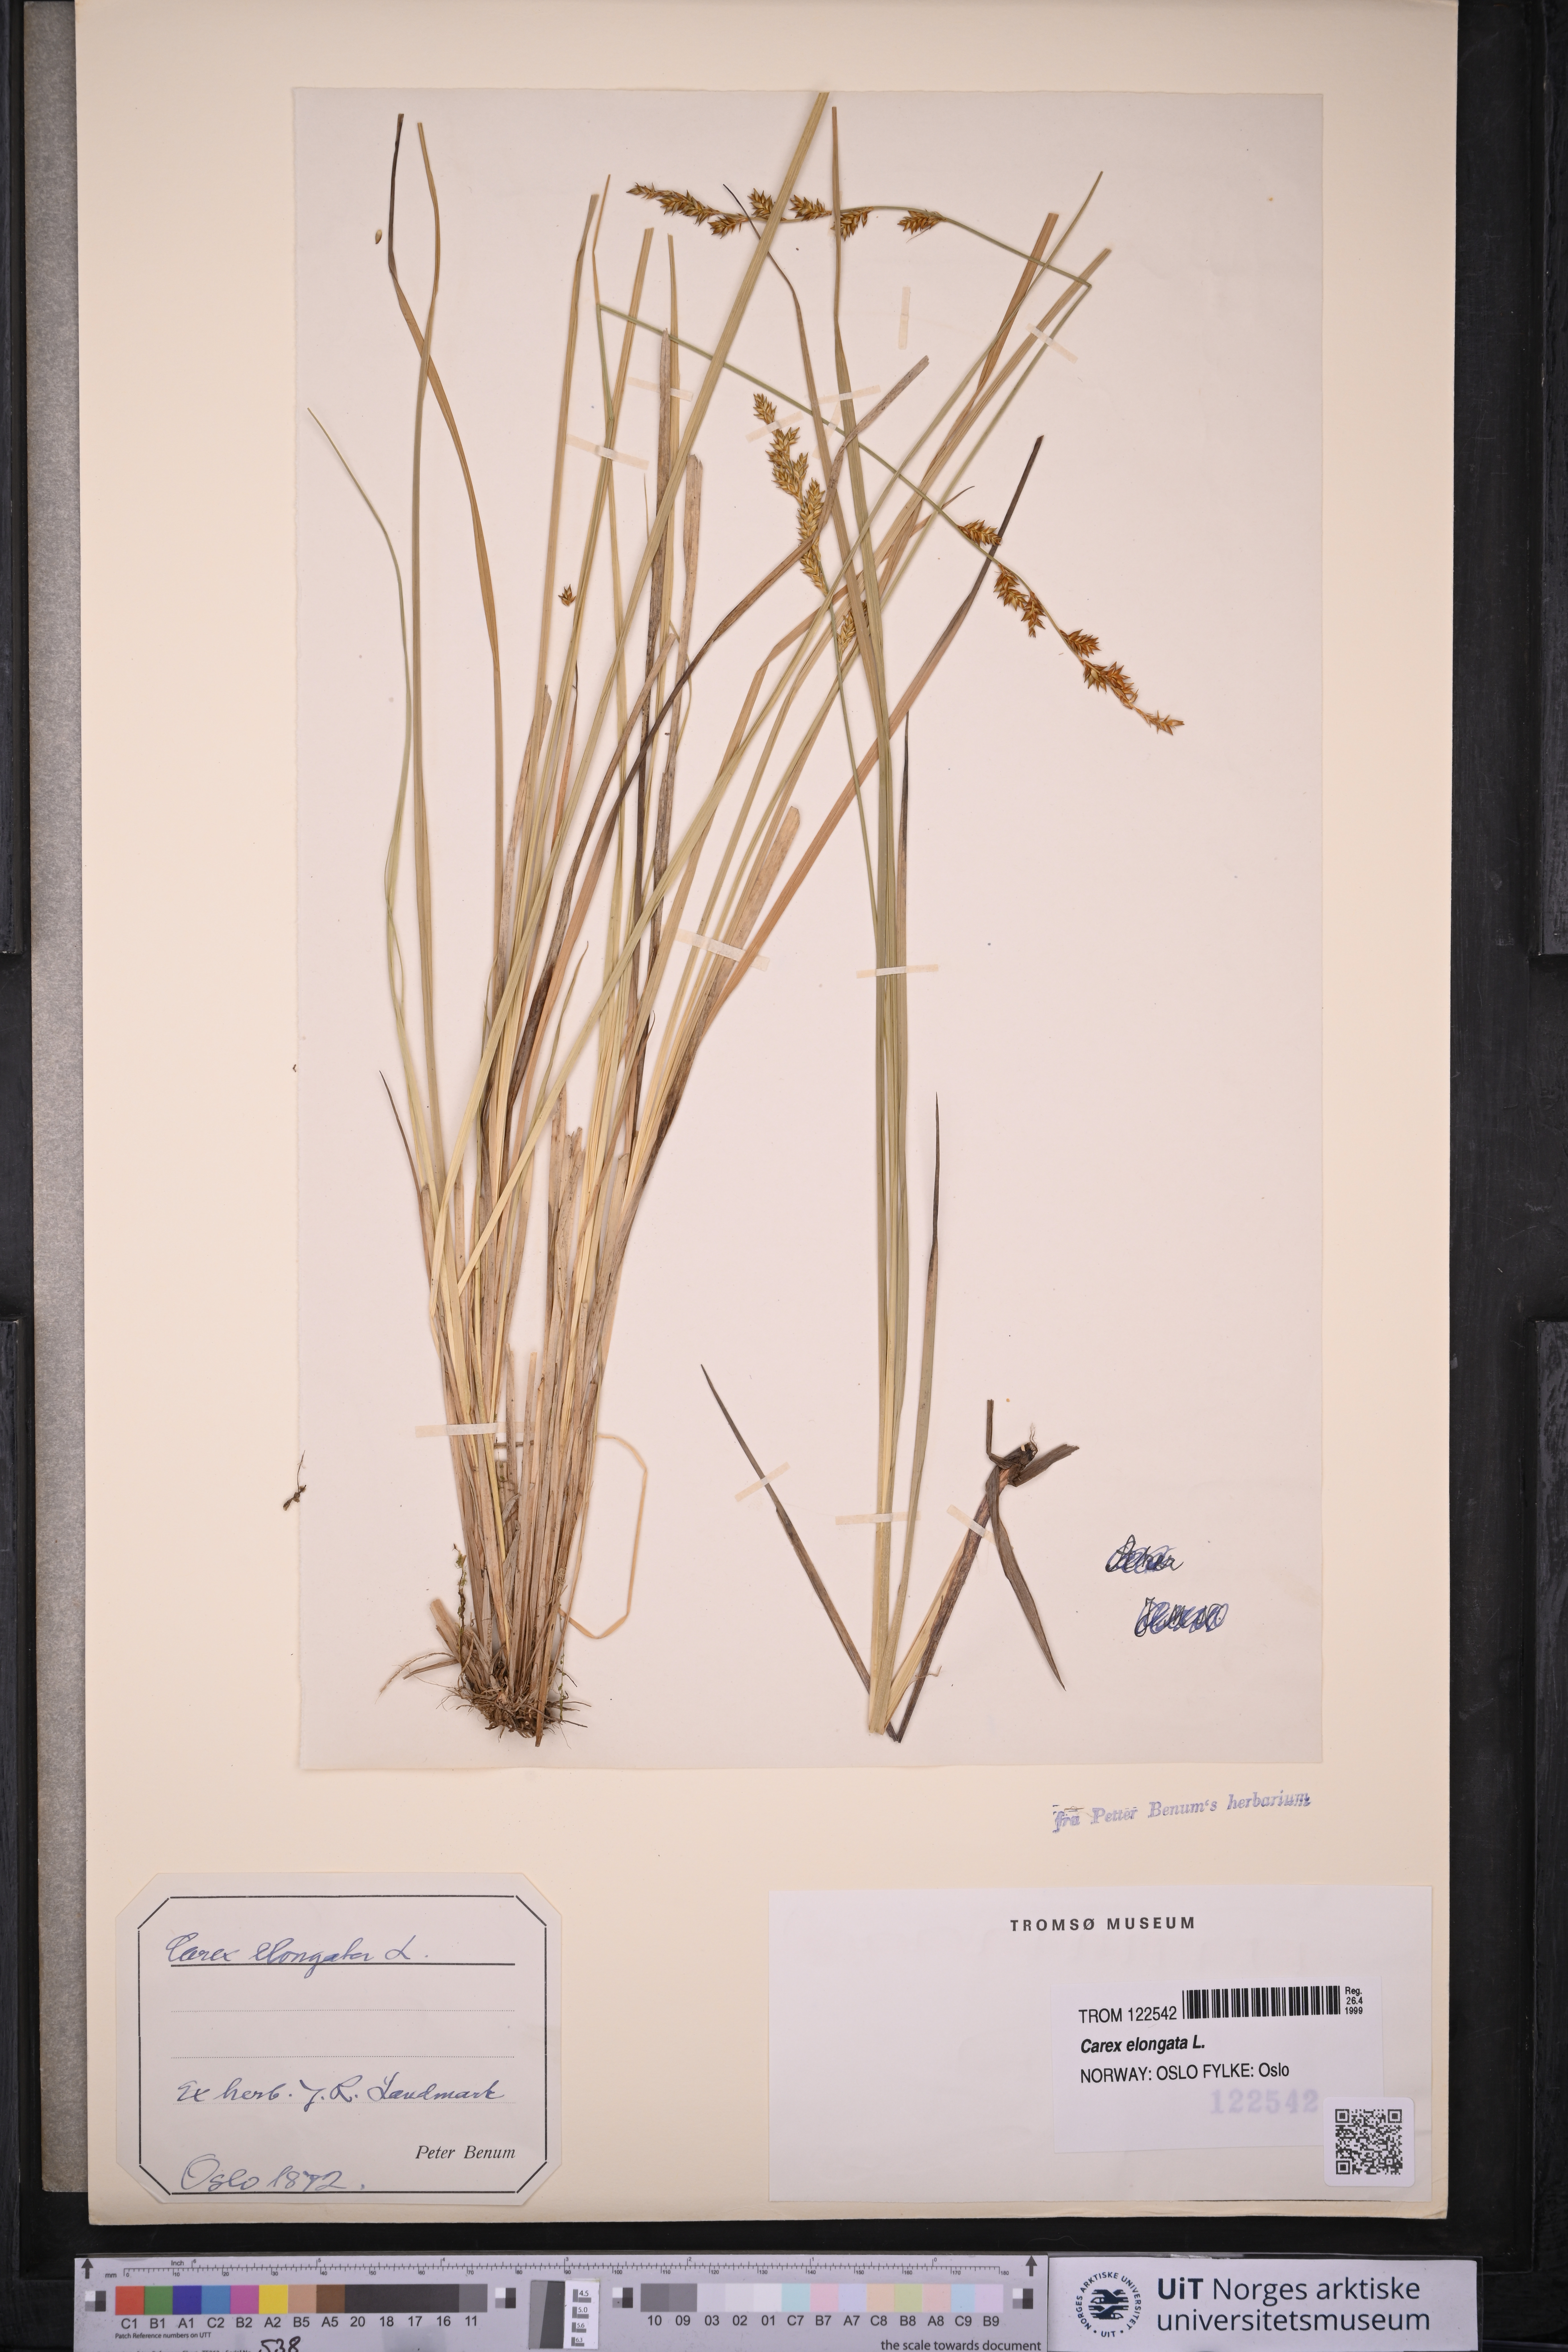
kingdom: Plantae
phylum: Tracheophyta
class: Liliopsida
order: Poales
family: Cyperaceae
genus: Carex
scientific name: Carex elongata
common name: Elongated sedge
